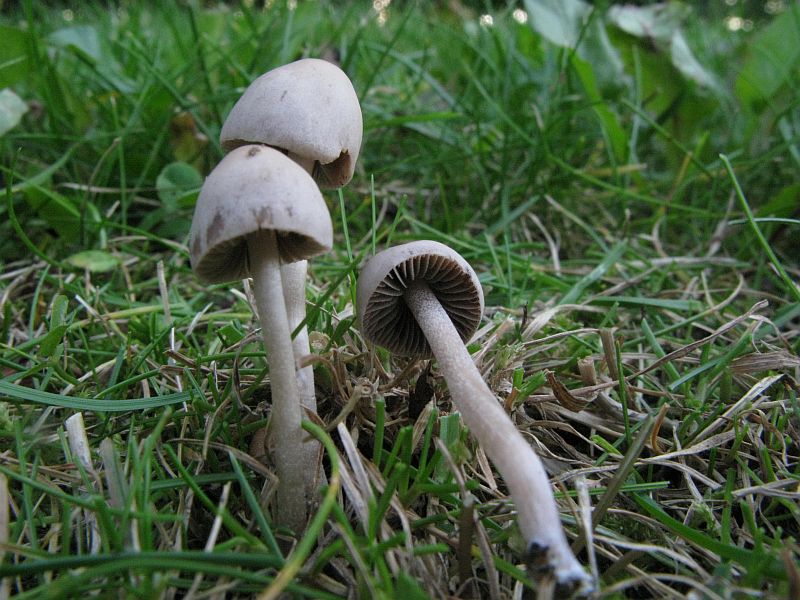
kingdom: Fungi
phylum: Basidiomycota
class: Agaricomycetes
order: Agaricales
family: Bolbitiaceae
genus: Panaeolina
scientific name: Panaeolina foenisecii
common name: høslætsvamp
